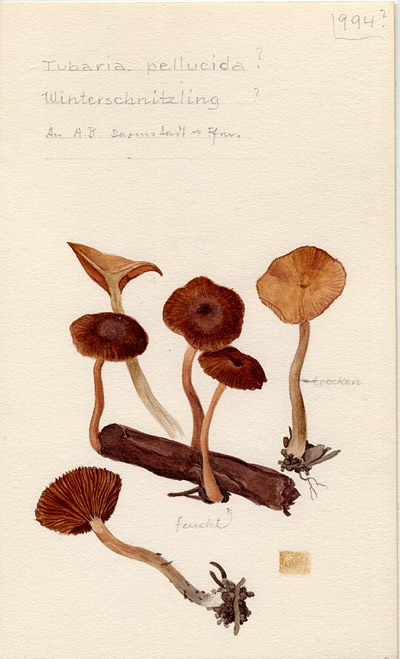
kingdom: Fungi
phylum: Basidiomycota
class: Agaricomycetes
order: Agaricales
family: Tubariaceae
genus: Tubaria
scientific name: Tubaria romagnesiana
